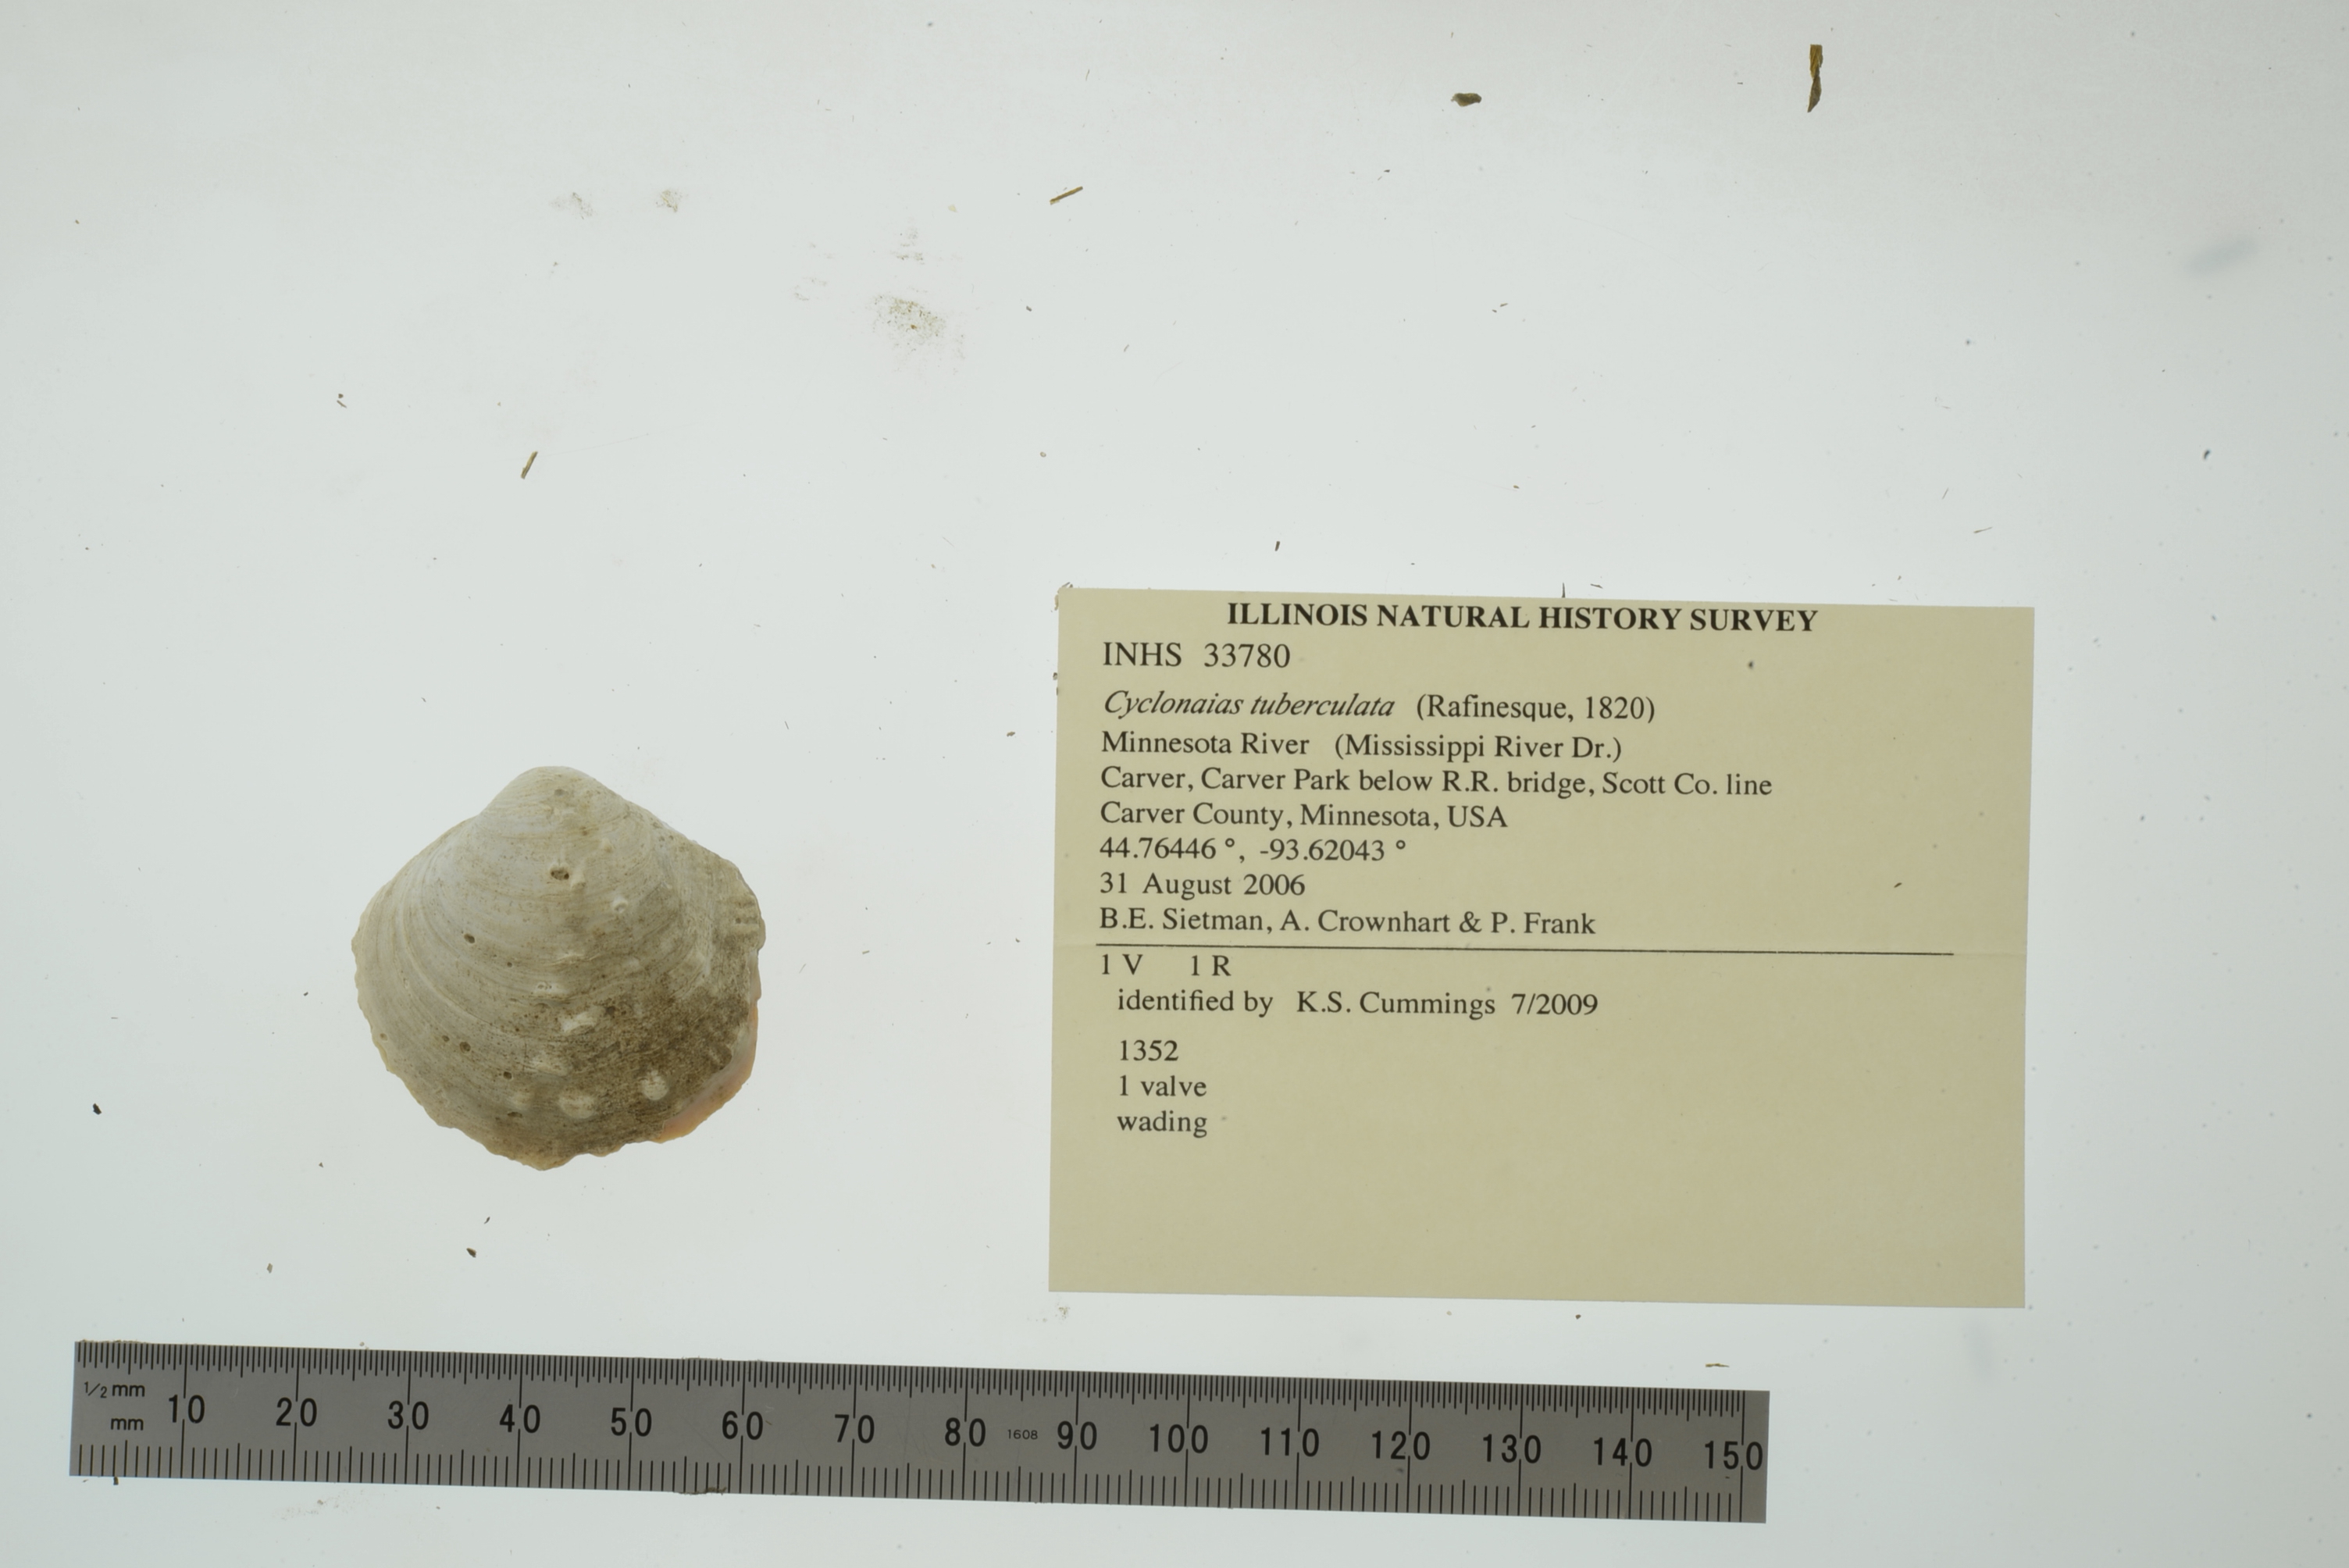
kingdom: Animalia
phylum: Mollusca
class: Bivalvia
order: Unionida
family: Unionidae
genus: Cyclonaias
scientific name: Cyclonaias tuberculata
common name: Purple wartyback
